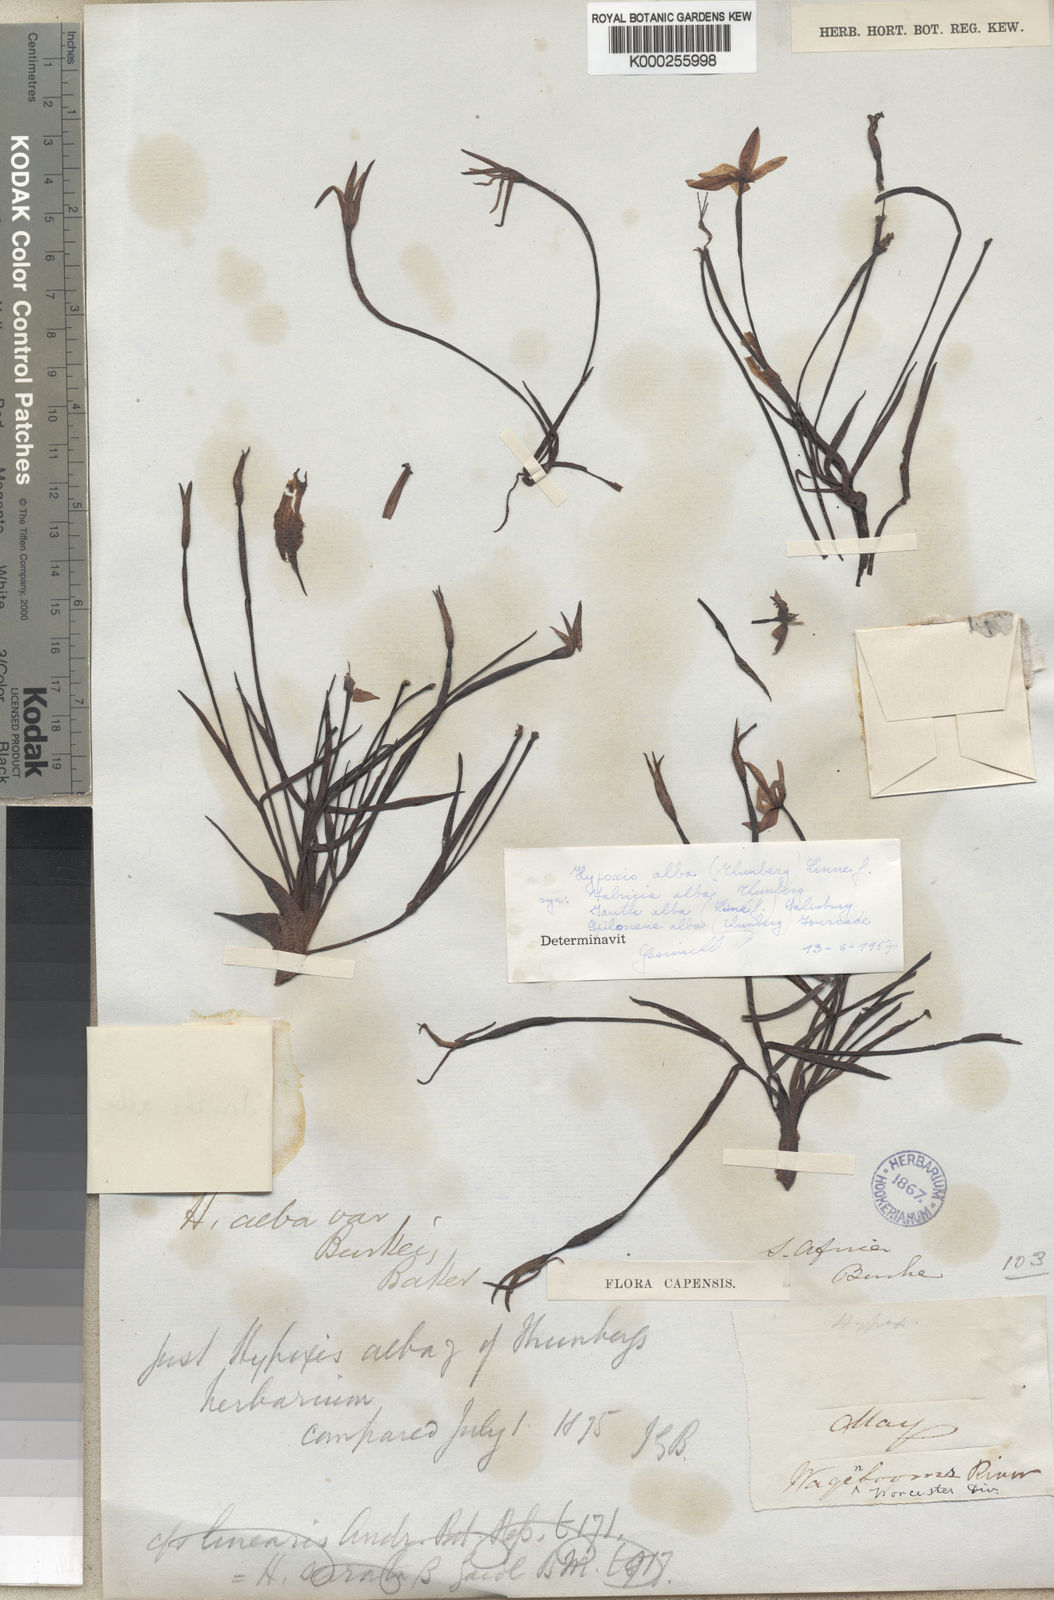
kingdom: Plantae
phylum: Tracheophyta
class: Liliopsida
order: Asparagales
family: Hypoxidaceae
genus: Pauridia
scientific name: Pauridia alba
